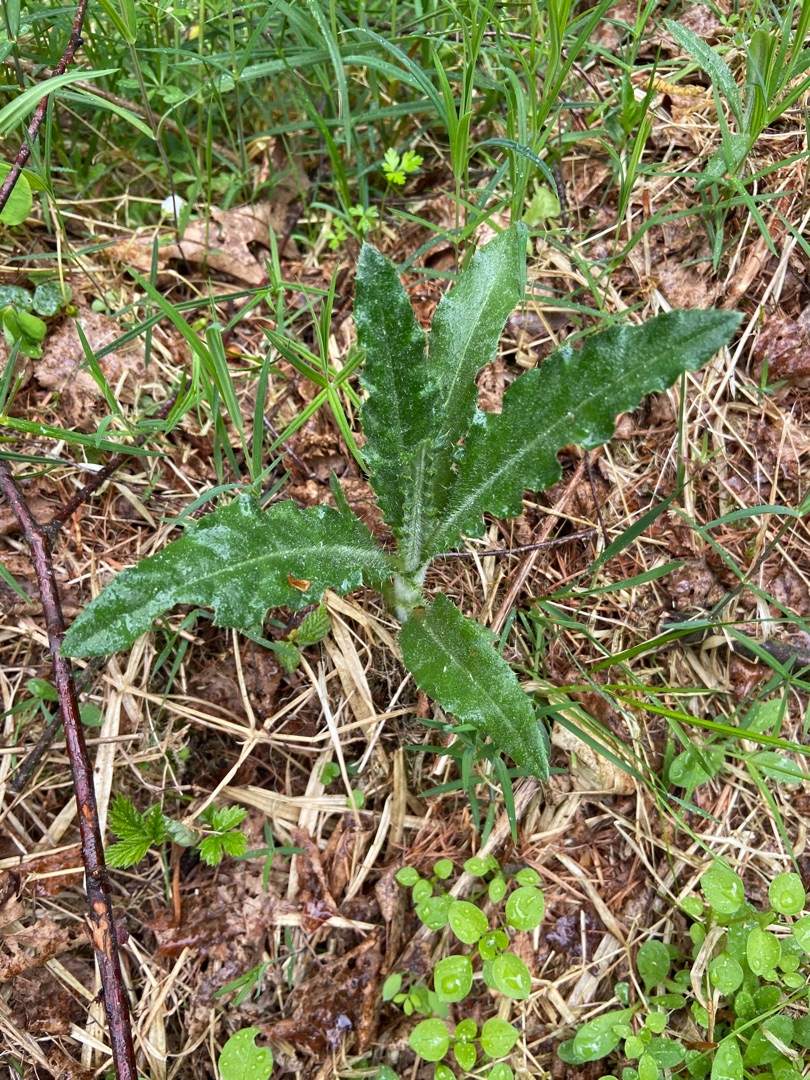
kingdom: Plantae
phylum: Tracheophyta
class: Magnoliopsida
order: Asterales
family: Asteraceae
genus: Cirsium
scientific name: Cirsium arvense
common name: Ager-tidsel
